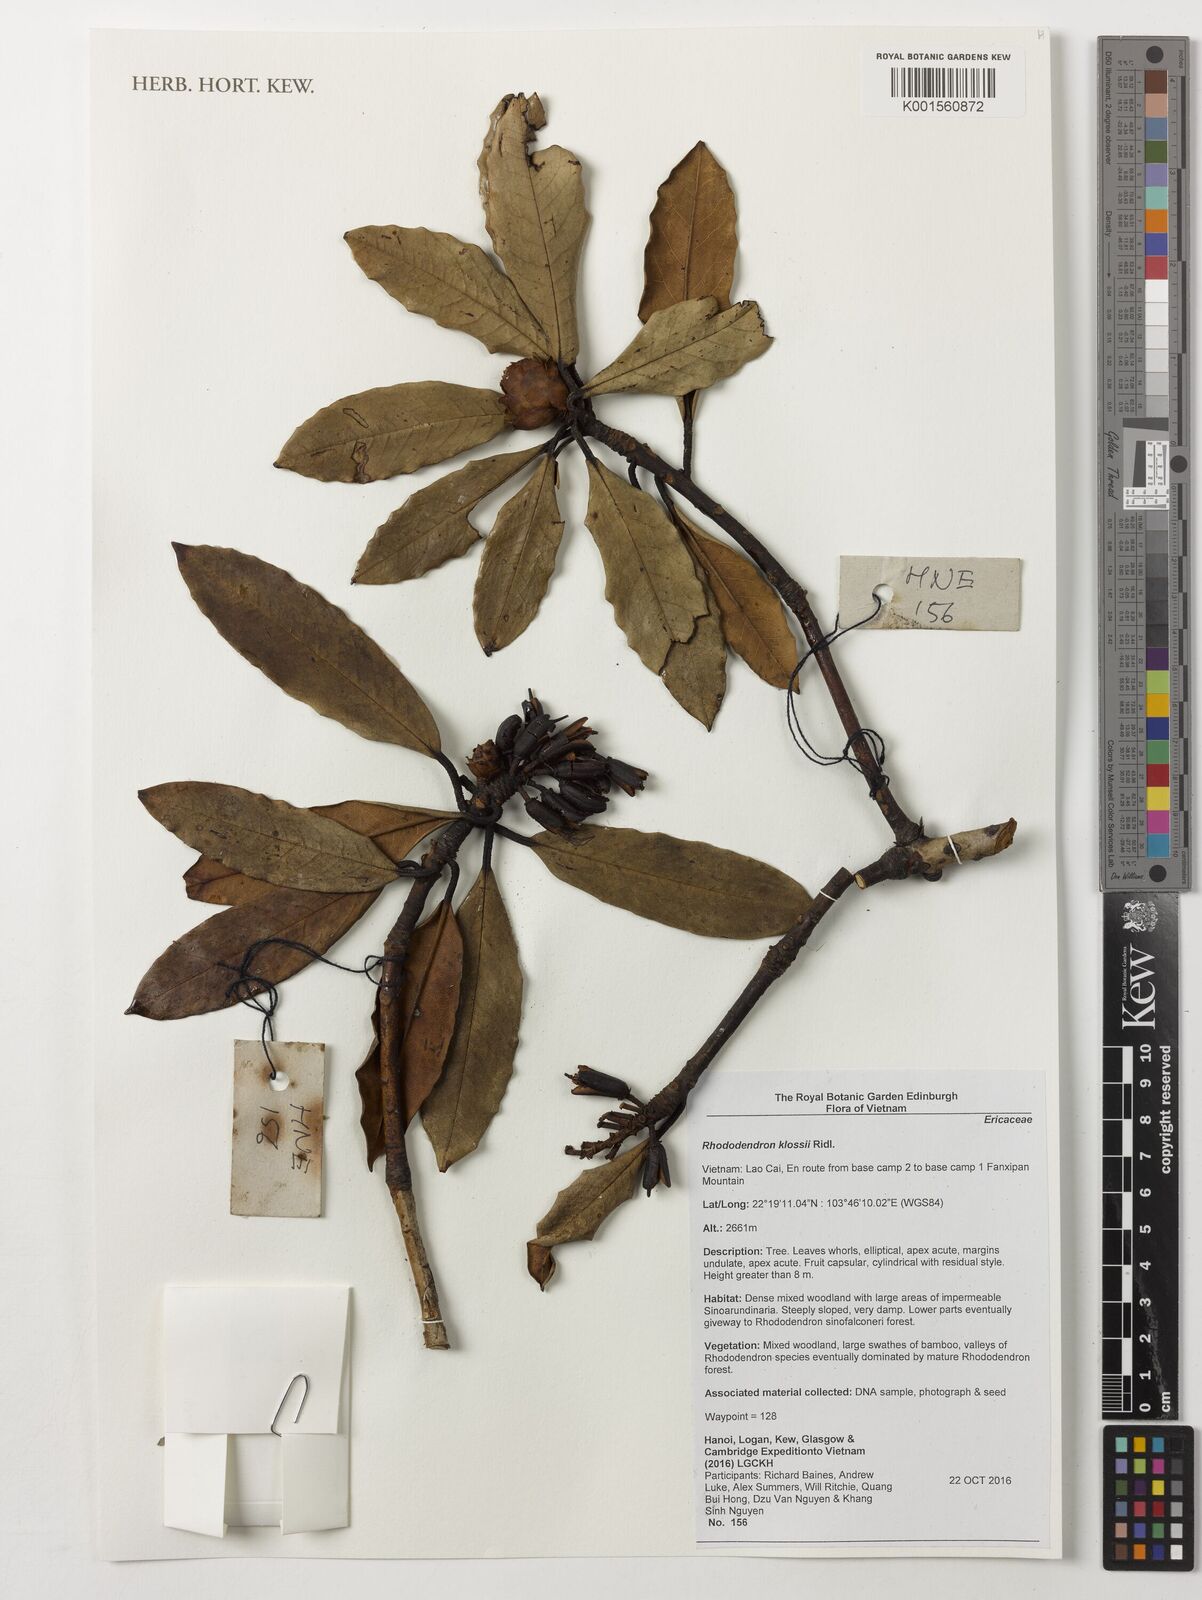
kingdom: Plantae
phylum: Tracheophyta
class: Magnoliopsida
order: Ericales
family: Ericaceae
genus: Rhododendron
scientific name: Rhododendron moulmainense
